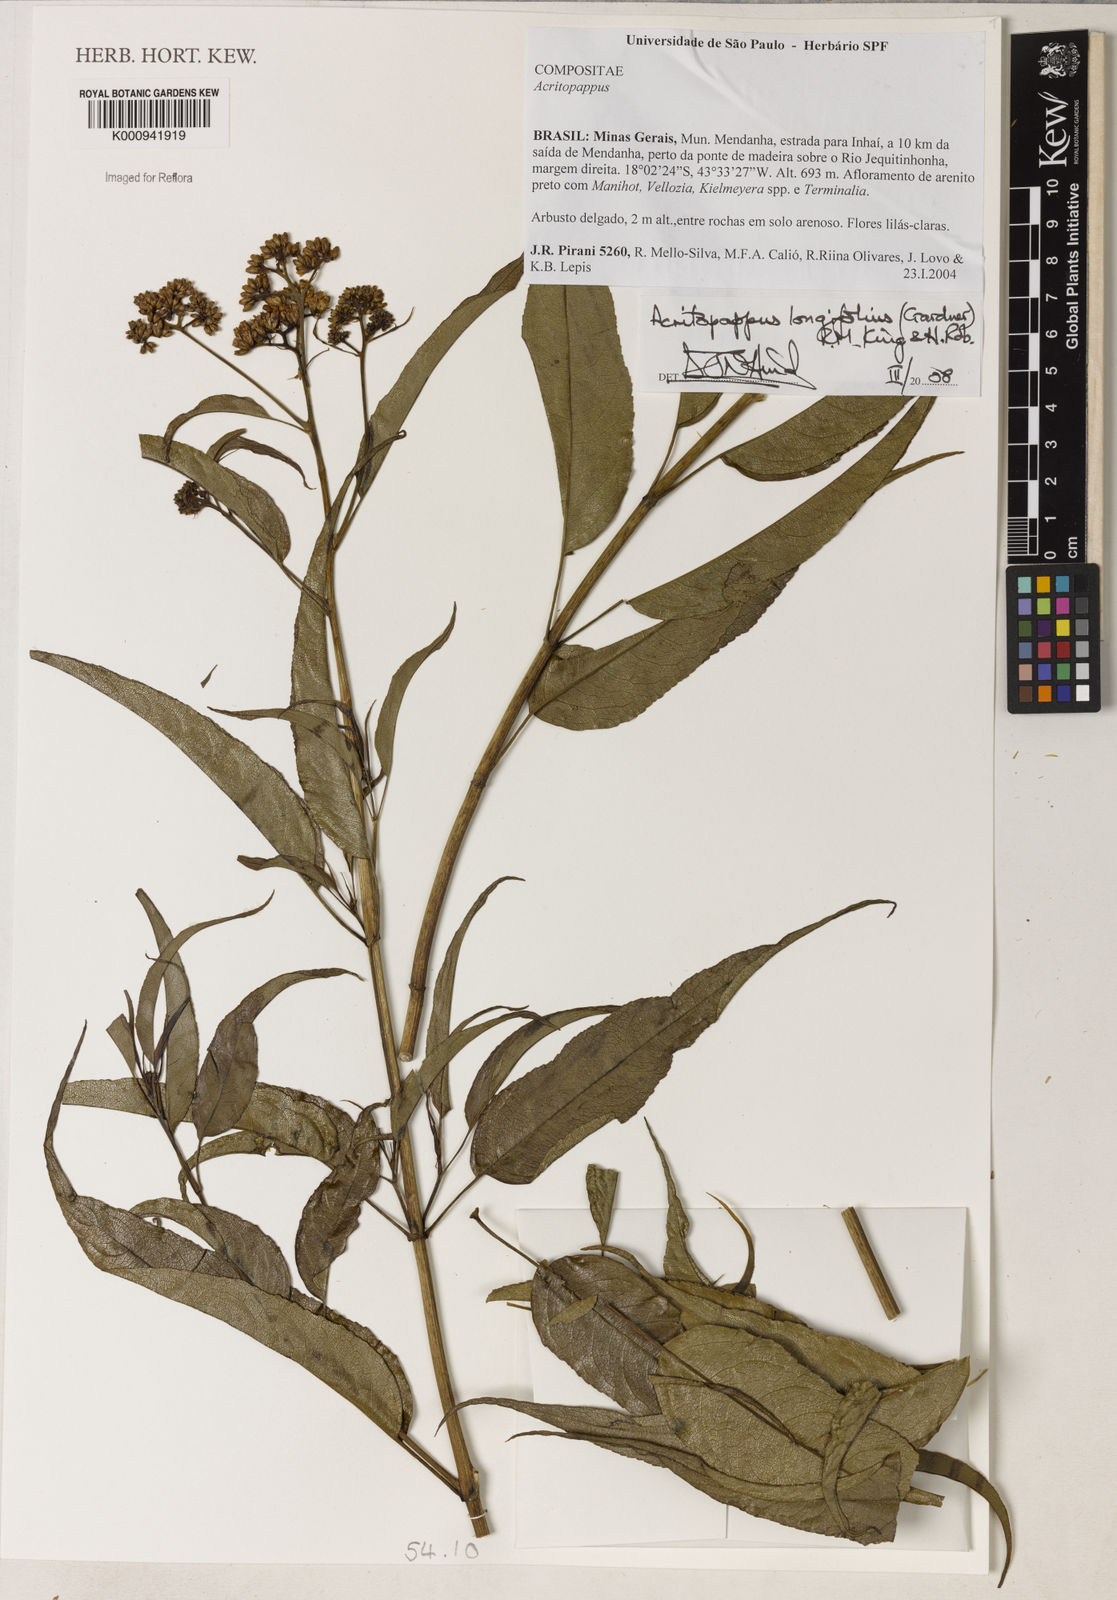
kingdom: Plantae
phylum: Tracheophyta
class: Magnoliopsida
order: Asterales
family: Asteraceae
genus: Acritopappus
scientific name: Acritopappus longifolius
